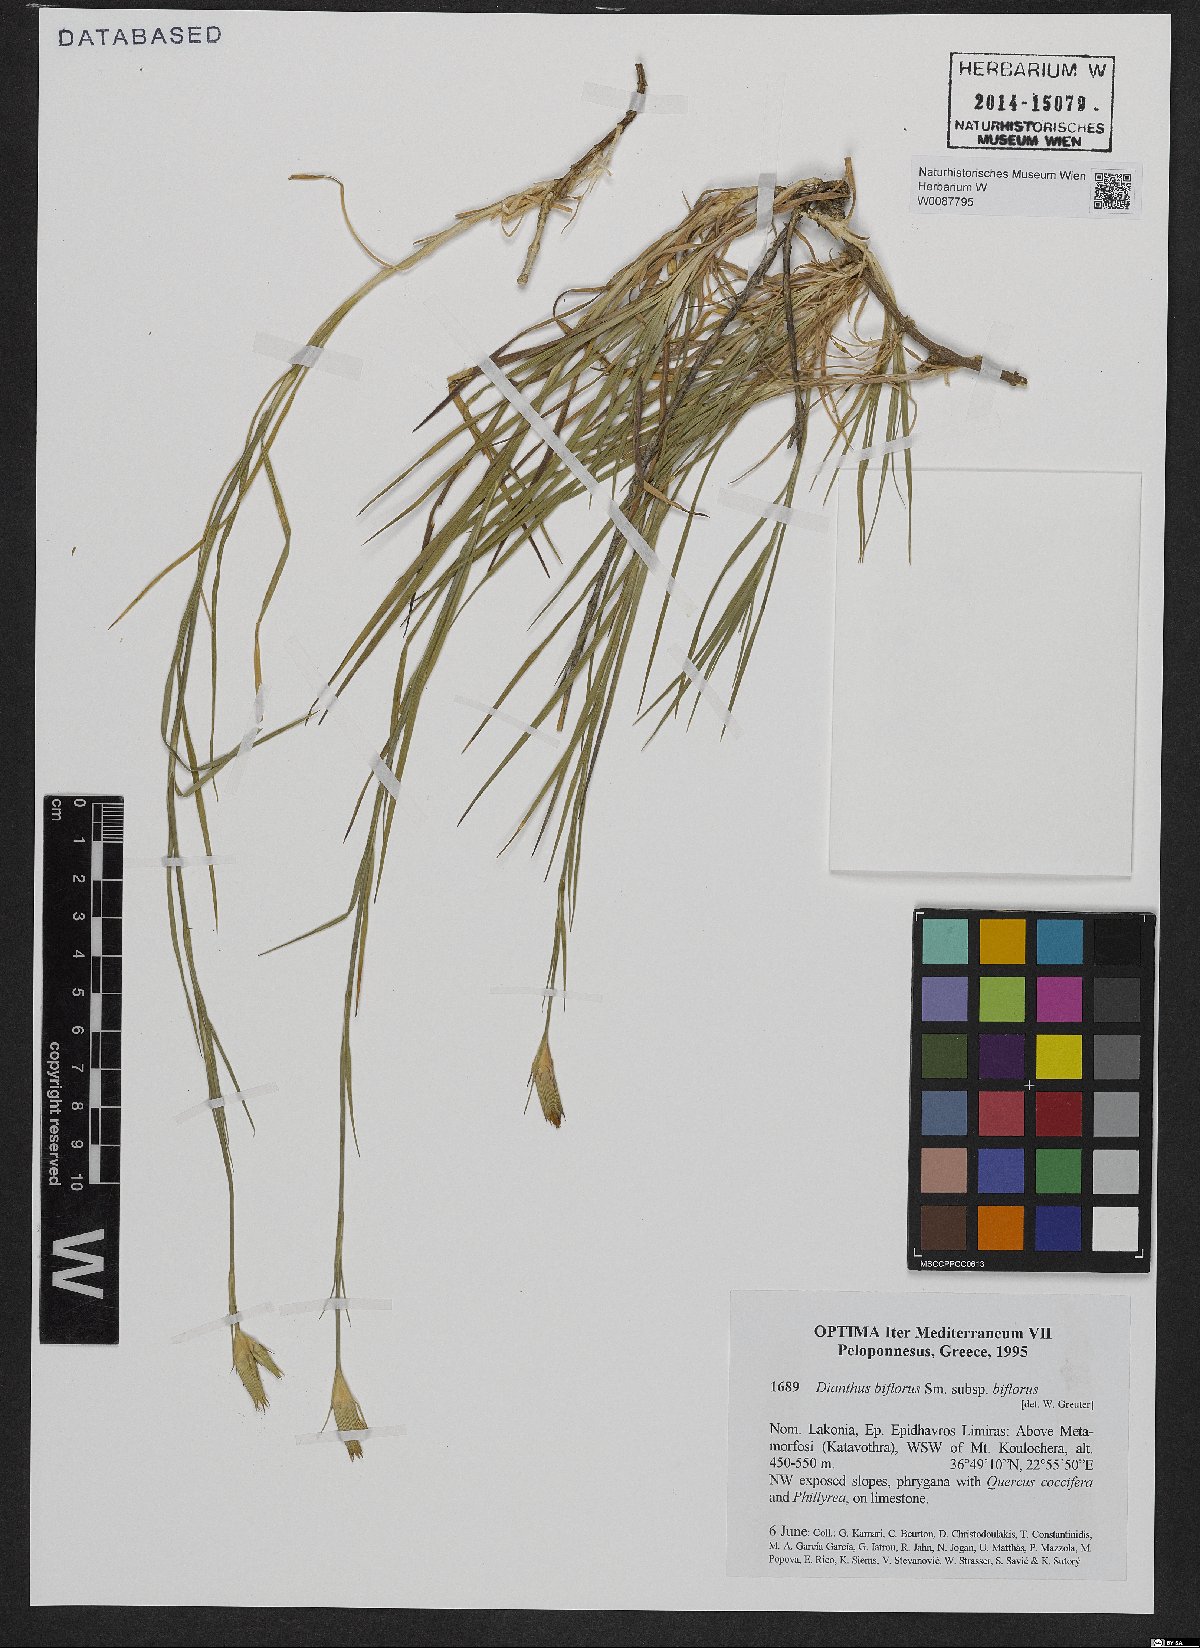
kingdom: Plantae
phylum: Tracheophyta
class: Magnoliopsida
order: Caryophyllales
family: Caryophyllaceae
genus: Dianthus
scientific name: Dianthus biflorus
